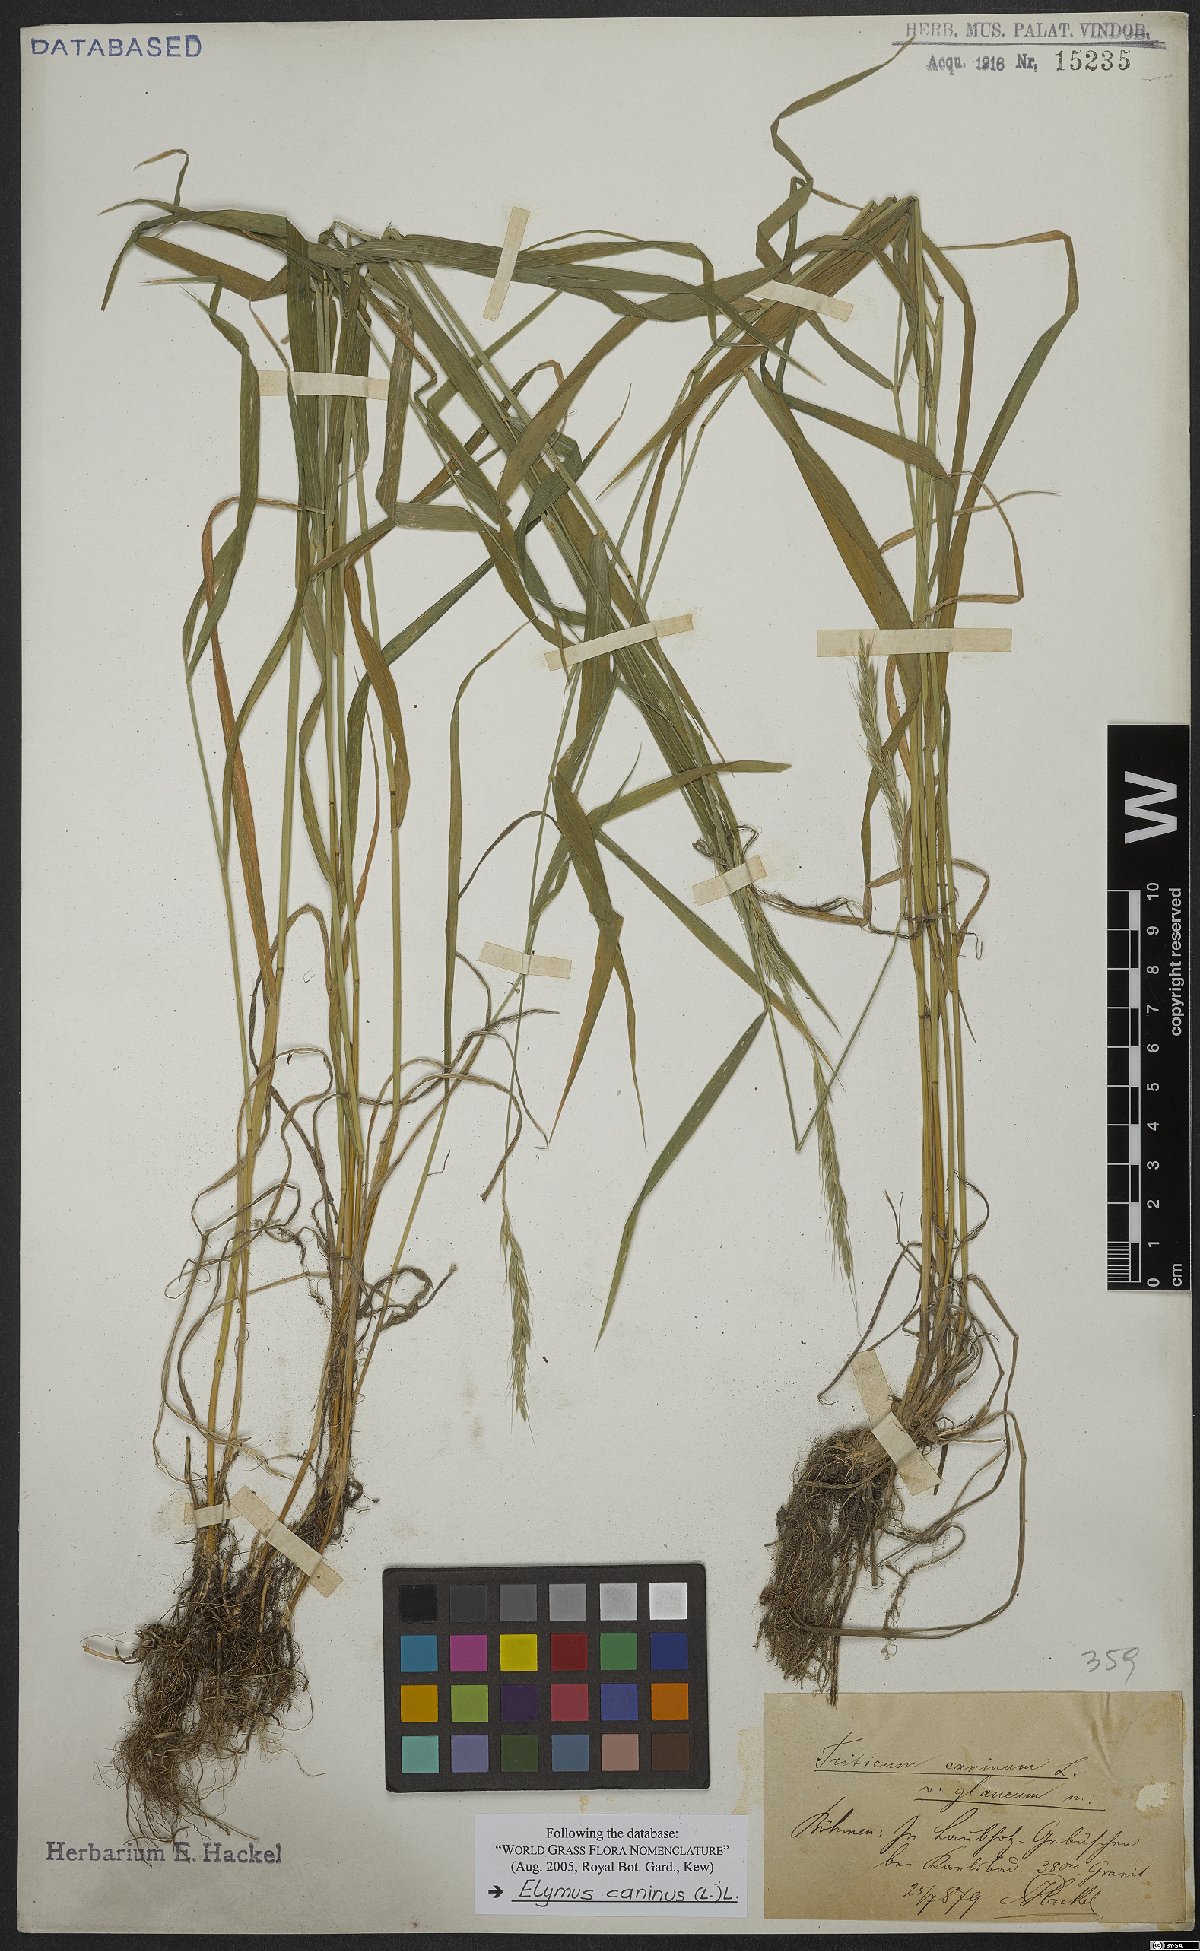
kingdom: Plantae
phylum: Tracheophyta
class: Liliopsida
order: Poales
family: Poaceae
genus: Elymus
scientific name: Elymus caninus
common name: Bearded couch
